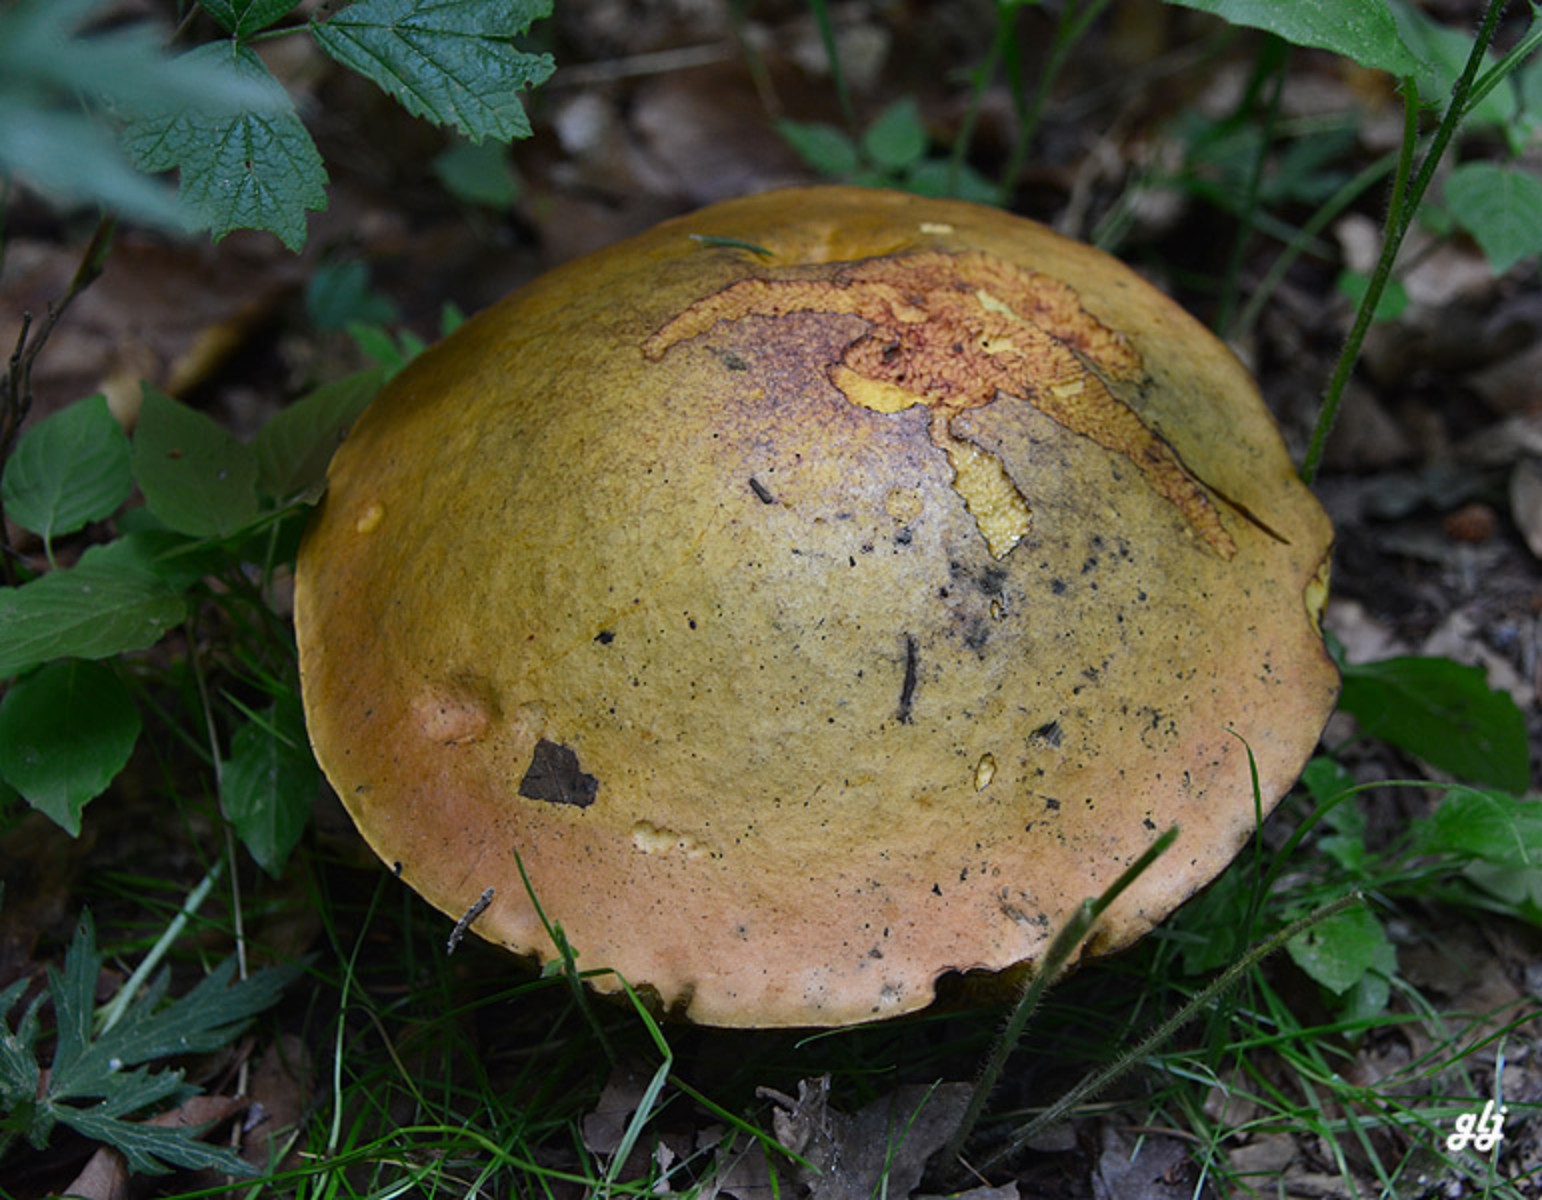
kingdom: Fungi
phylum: Basidiomycota
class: Agaricomycetes
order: Boletales
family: Boletaceae
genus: Suillellus
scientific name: Suillellus luridus
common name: netstokket indigorørhat
